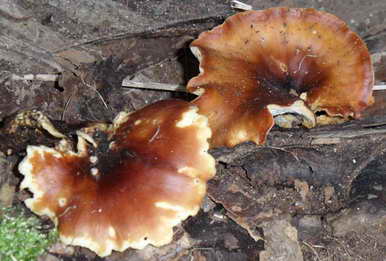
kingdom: Fungi
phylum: Basidiomycota
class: Agaricomycetes
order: Polyporales
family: Polyporaceae
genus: Picipes
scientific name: Picipes badius
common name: kastaniebrun stilkporesvamp
